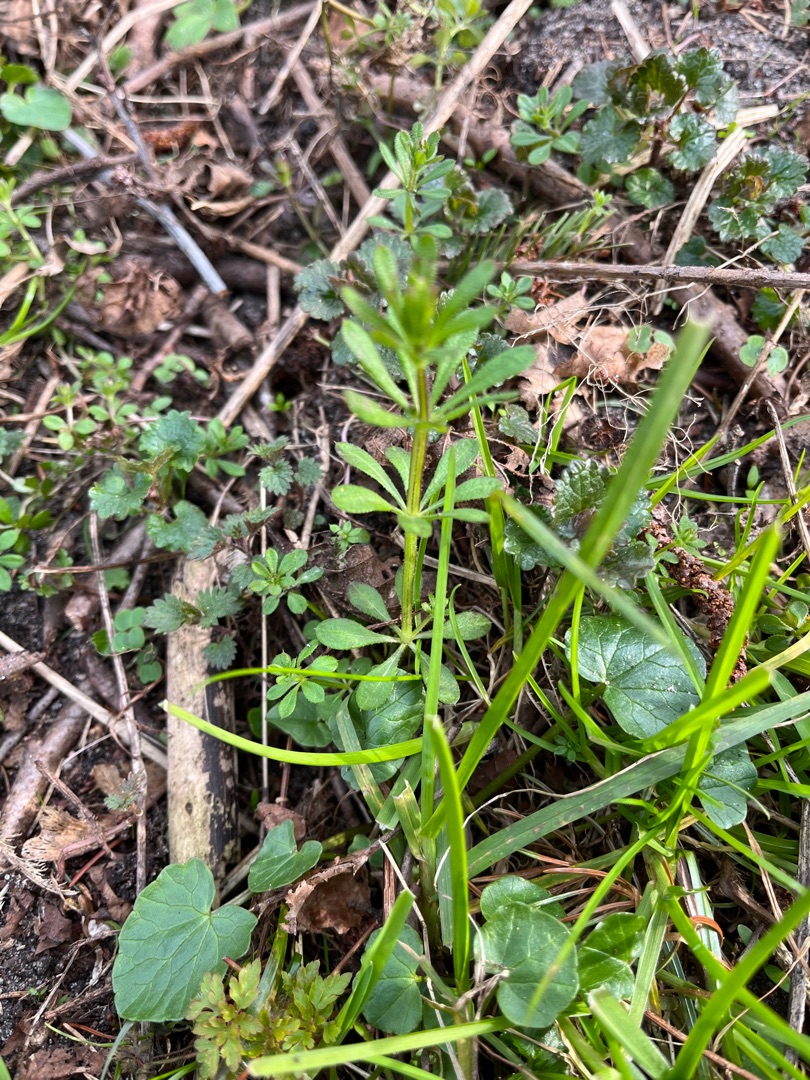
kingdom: Plantae
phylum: Tracheophyta
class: Magnoliopsida
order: Gentianales
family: Rubiaceae
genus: Galium
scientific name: Galium aparine
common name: Burre-snerre
